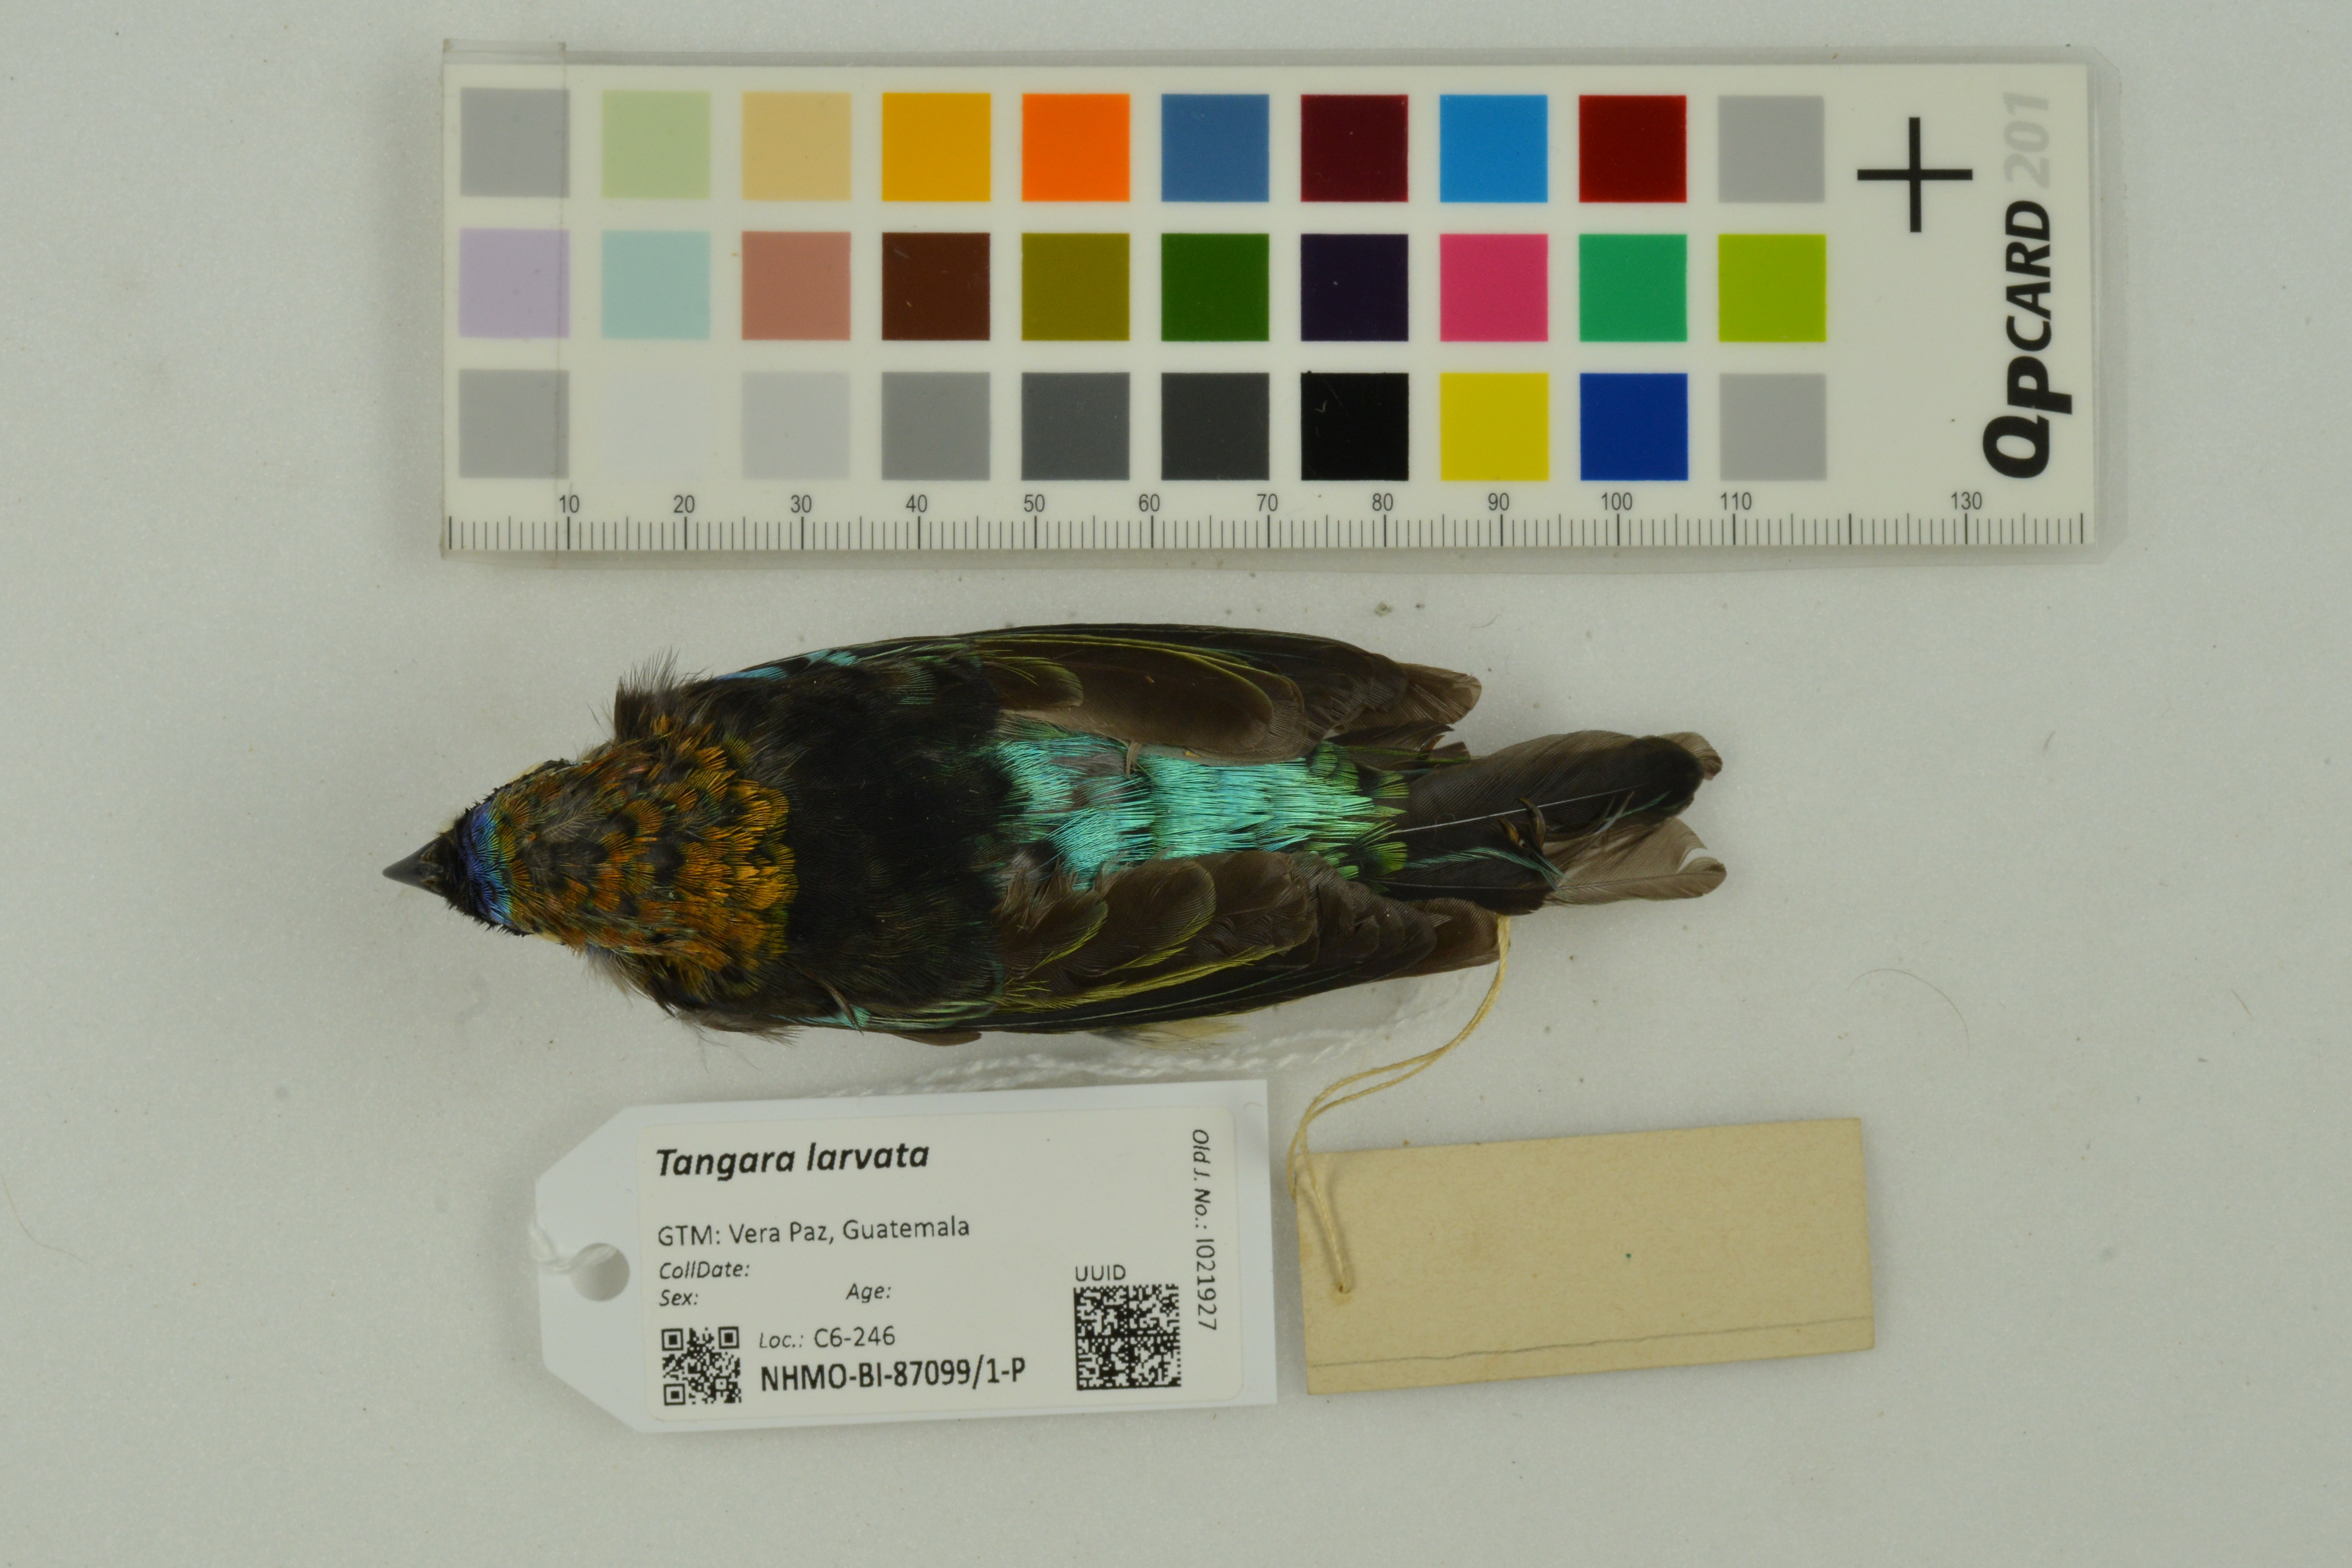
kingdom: Animalia
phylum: Chordata
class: Aves
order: Passeriformes
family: Thraupidae
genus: Stilpnia
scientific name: Stilpnia larvata
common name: Golden-hooded tanager
